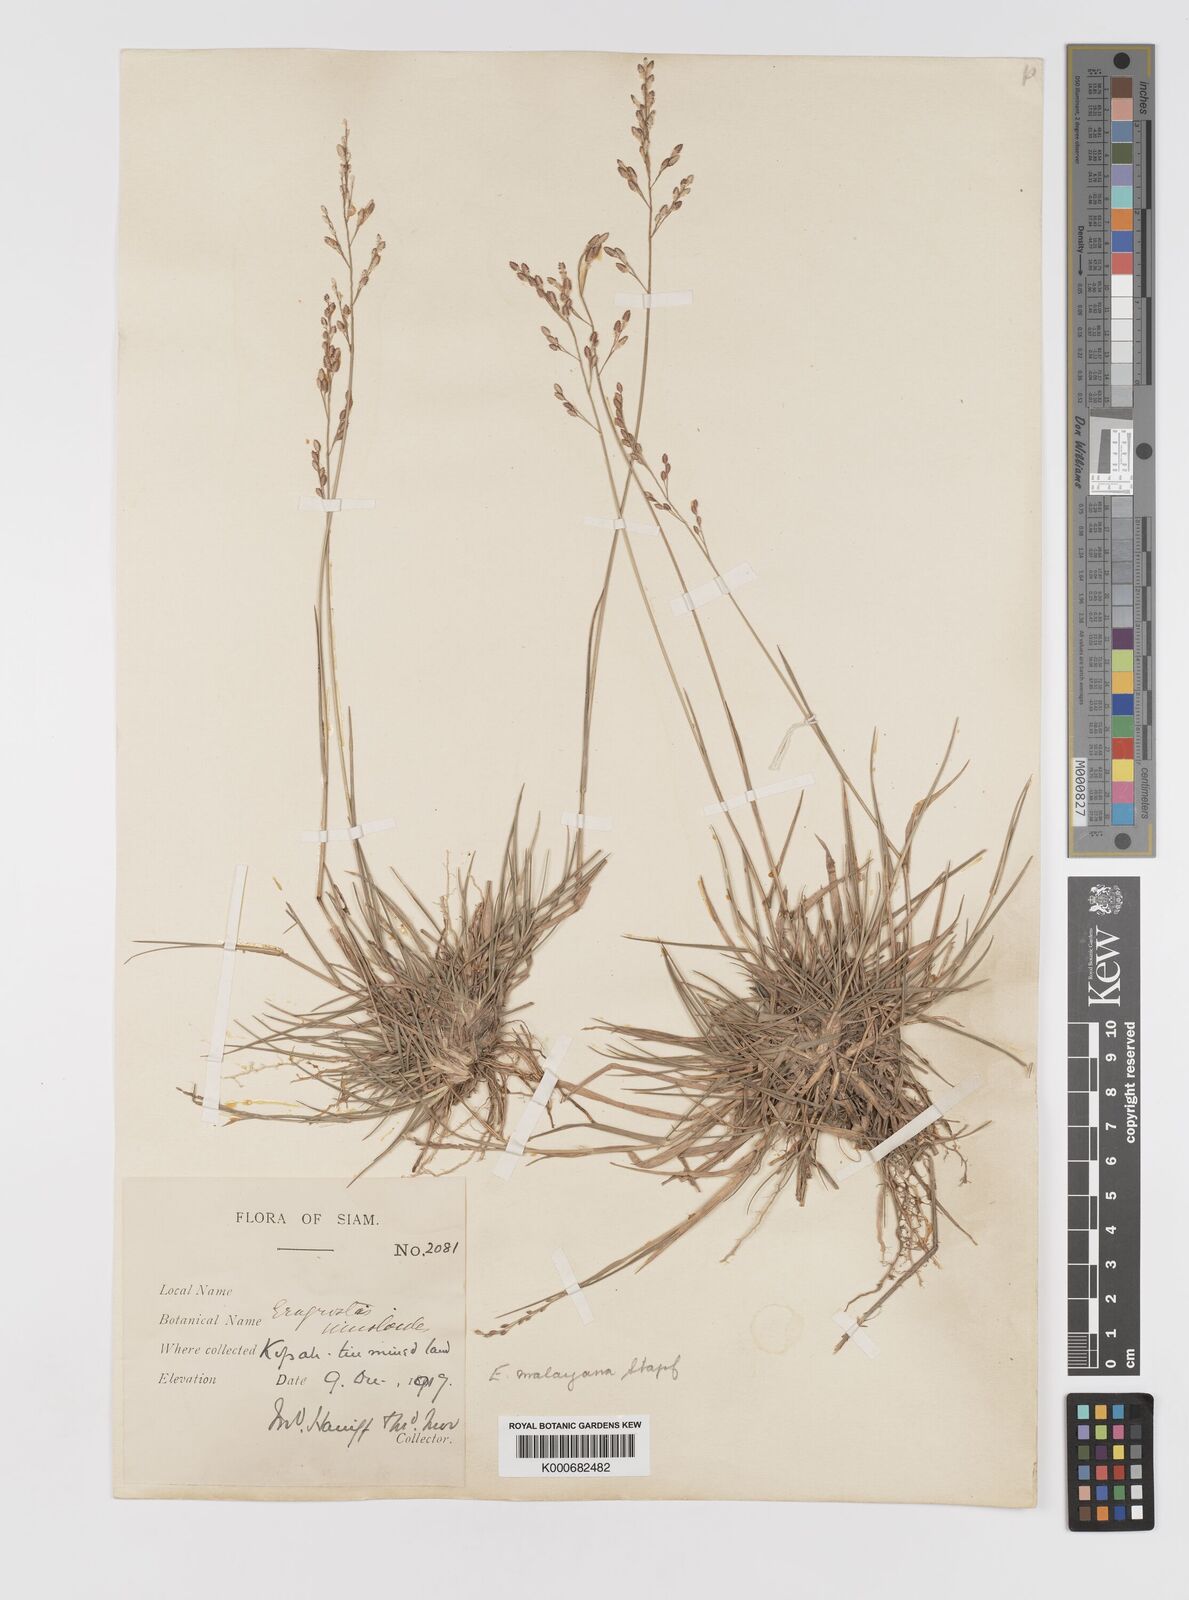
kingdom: Plantae
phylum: Tracheophyta
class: Liliopsida
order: Poales
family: Poaceae
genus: Eragrostis
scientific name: Eragrostis montana
